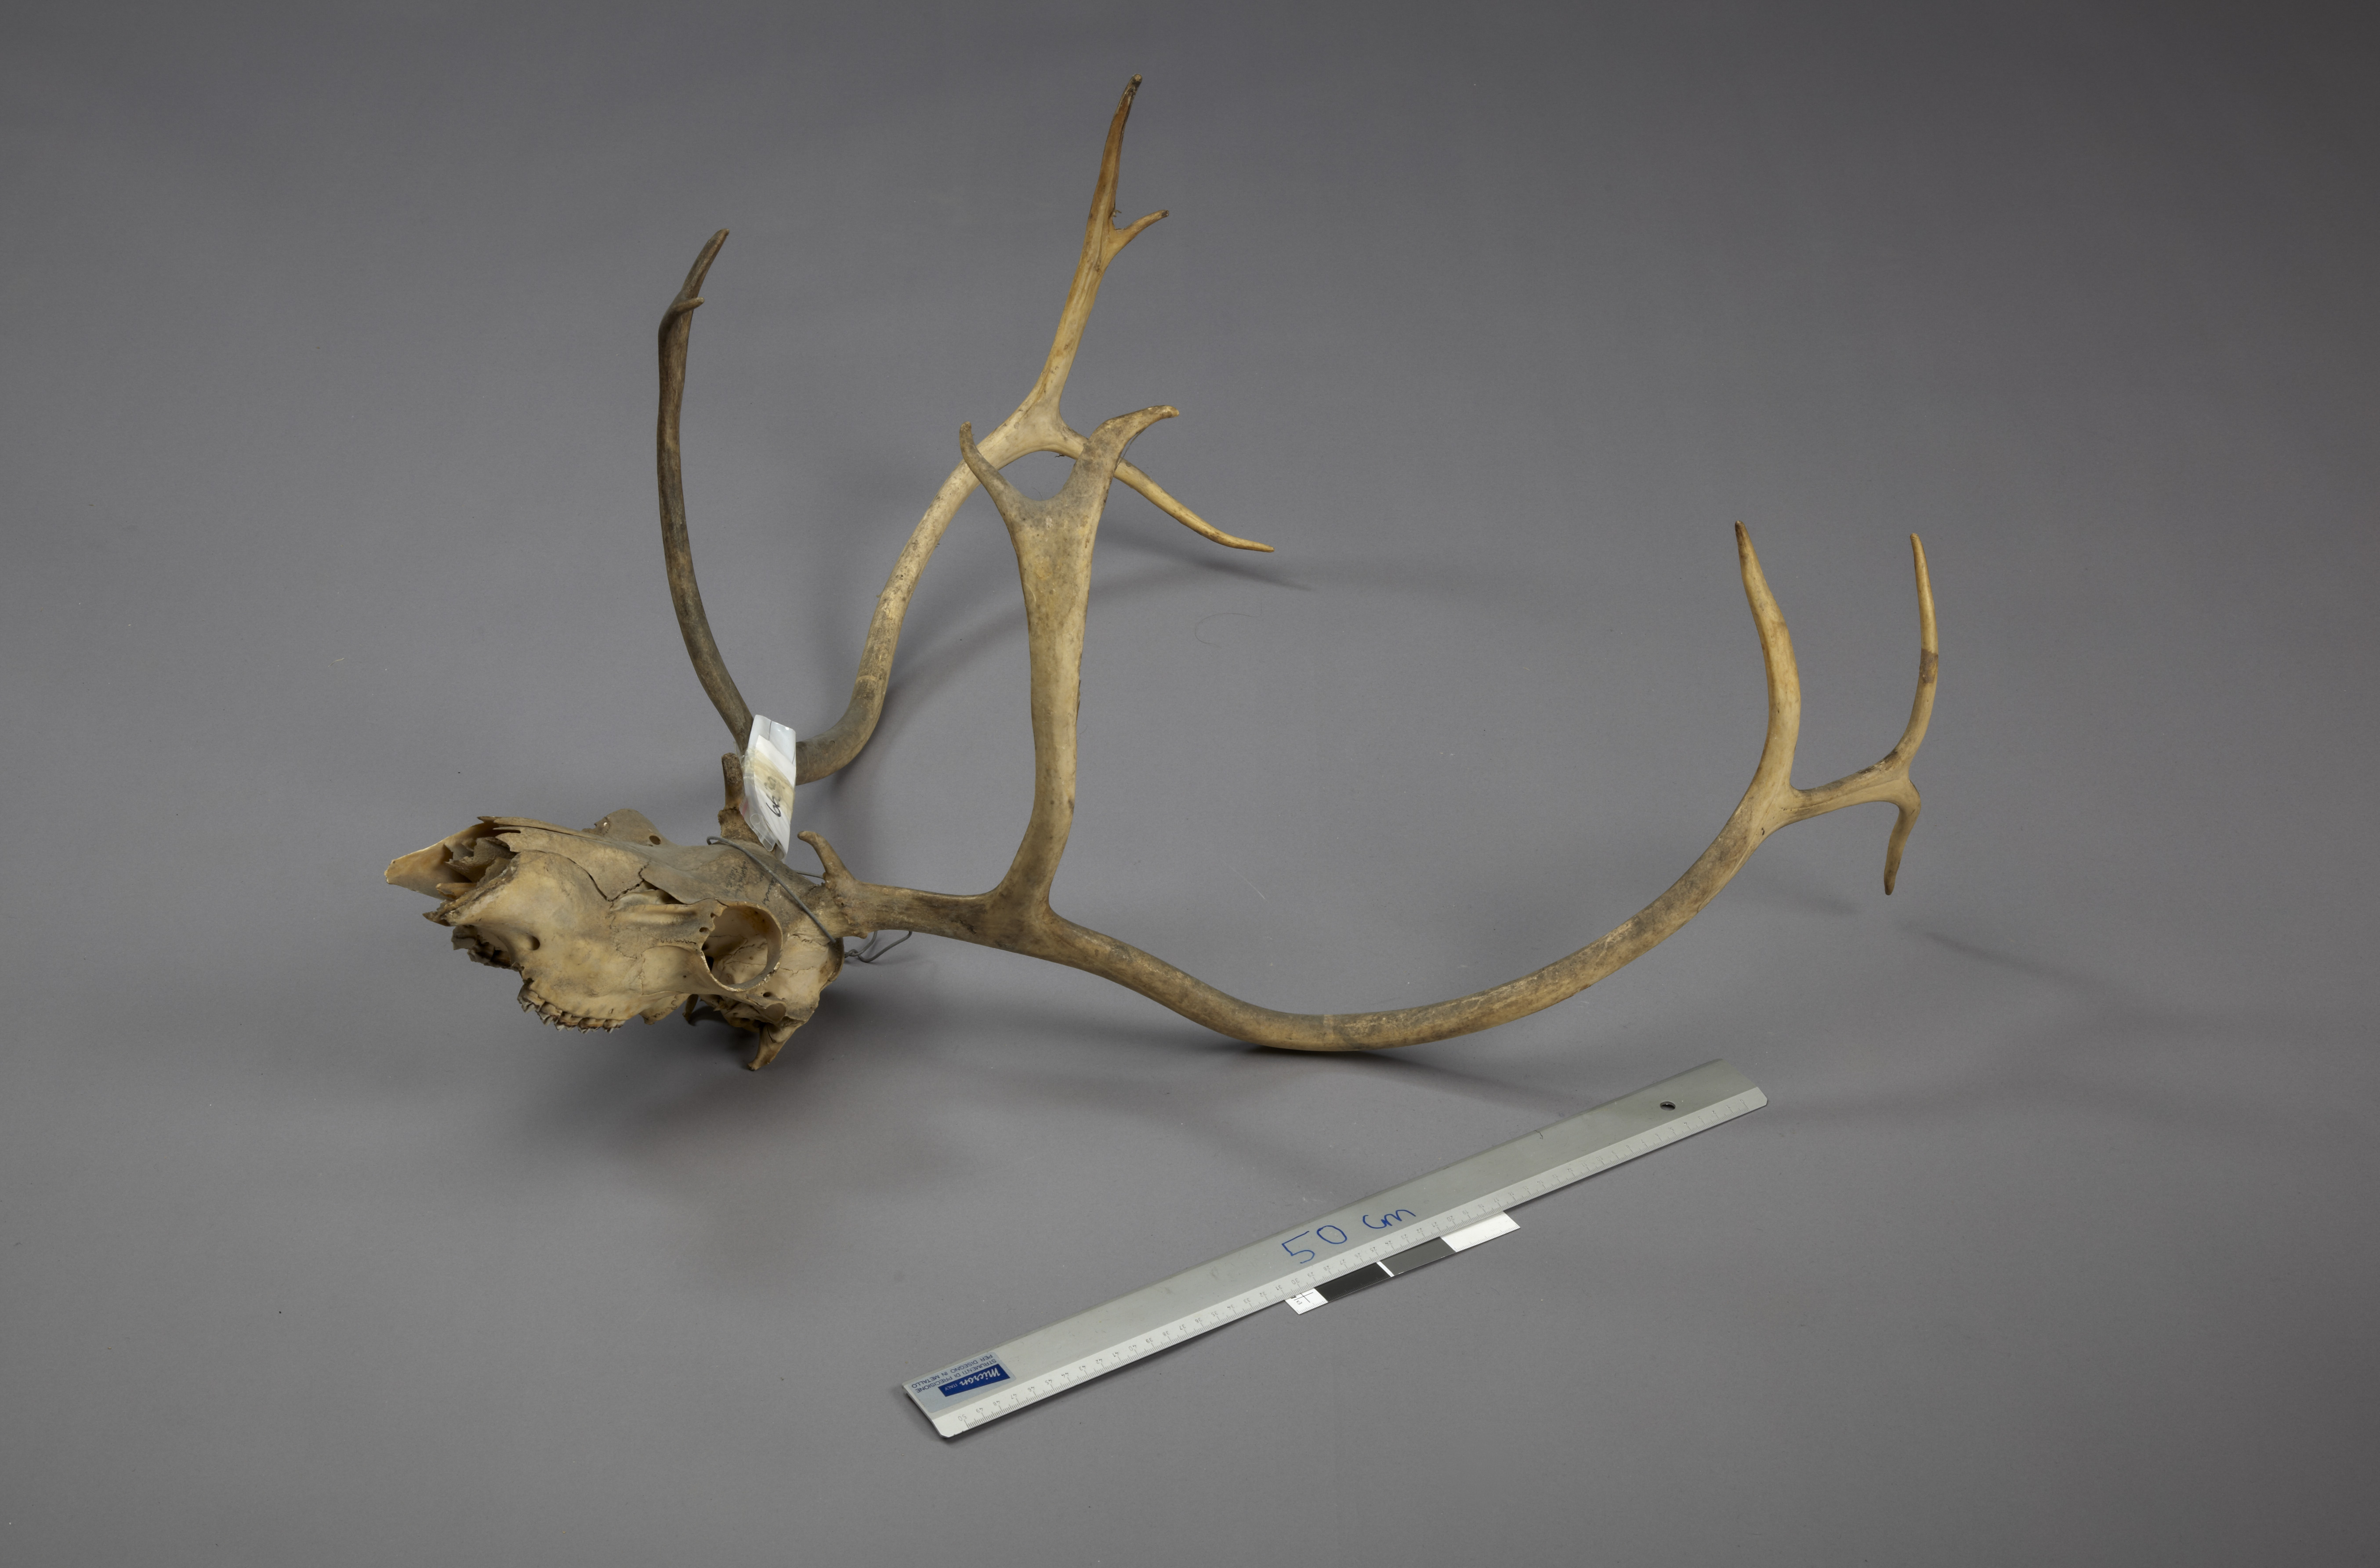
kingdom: Animalia
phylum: Chordata
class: Mammalia
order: Artiodactyla
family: Cervidae
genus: Rangifer
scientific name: Rangifer tarandus
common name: Reindeer
